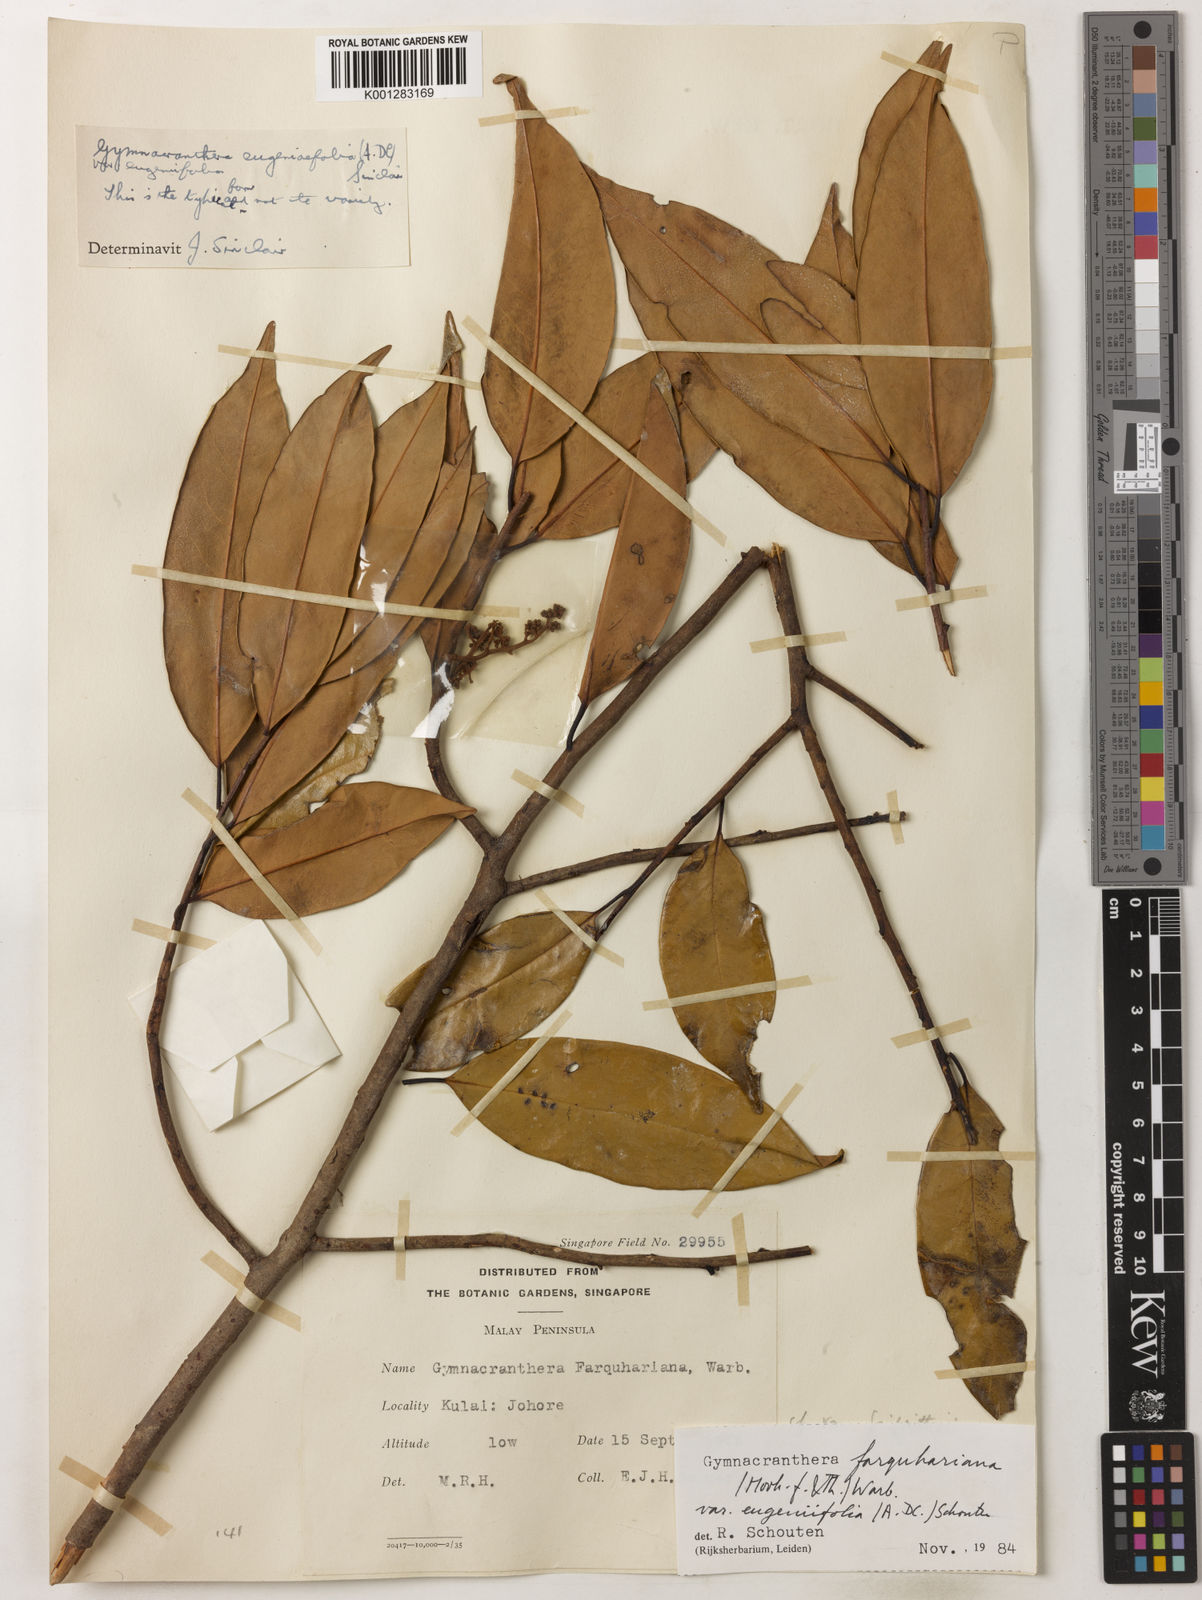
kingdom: Plantae
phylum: Tracheophyta
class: Magnoliopsida
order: Magnoliales
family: Myristicaceae
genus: Gymnacranthera
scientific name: Gymnacranthera farquhariana
